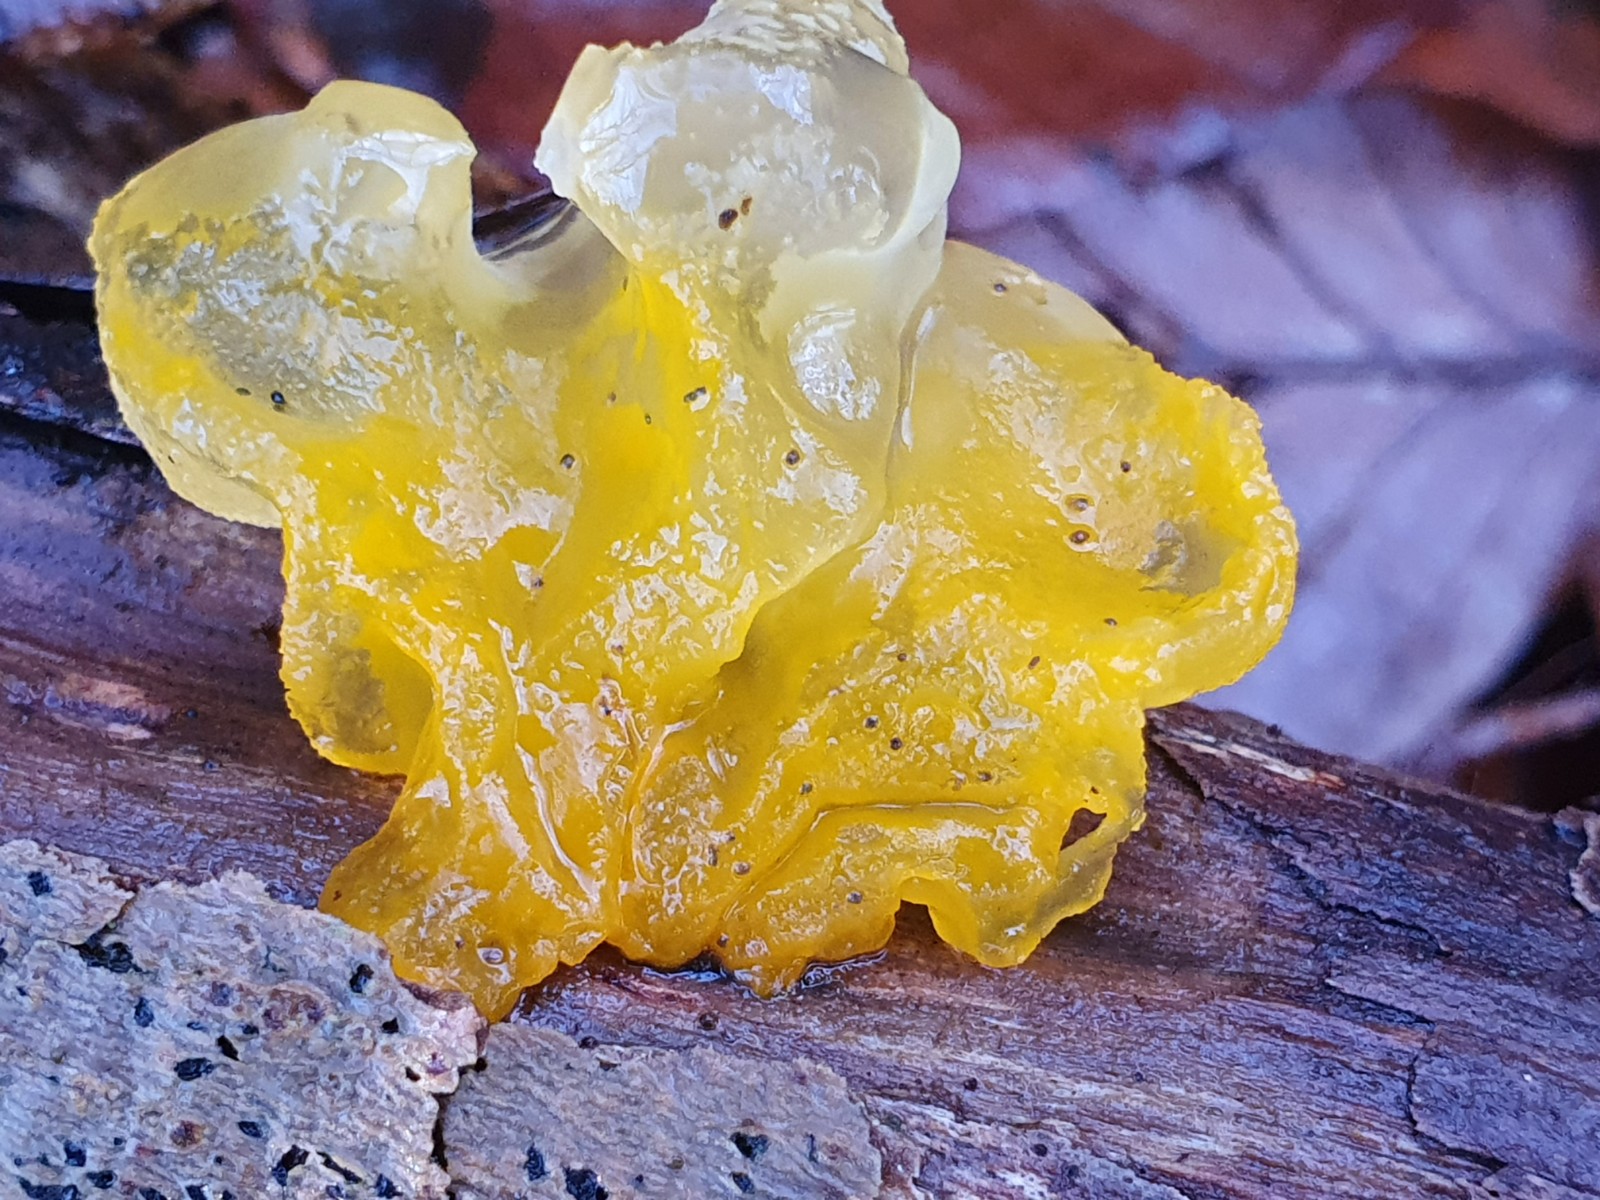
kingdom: Fungi
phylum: Basidiomycota
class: Tremellomycetes
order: Tremellales
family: Tremellaceae
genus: Tremella
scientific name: Tremella mesenterica
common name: gul bævresvamp
